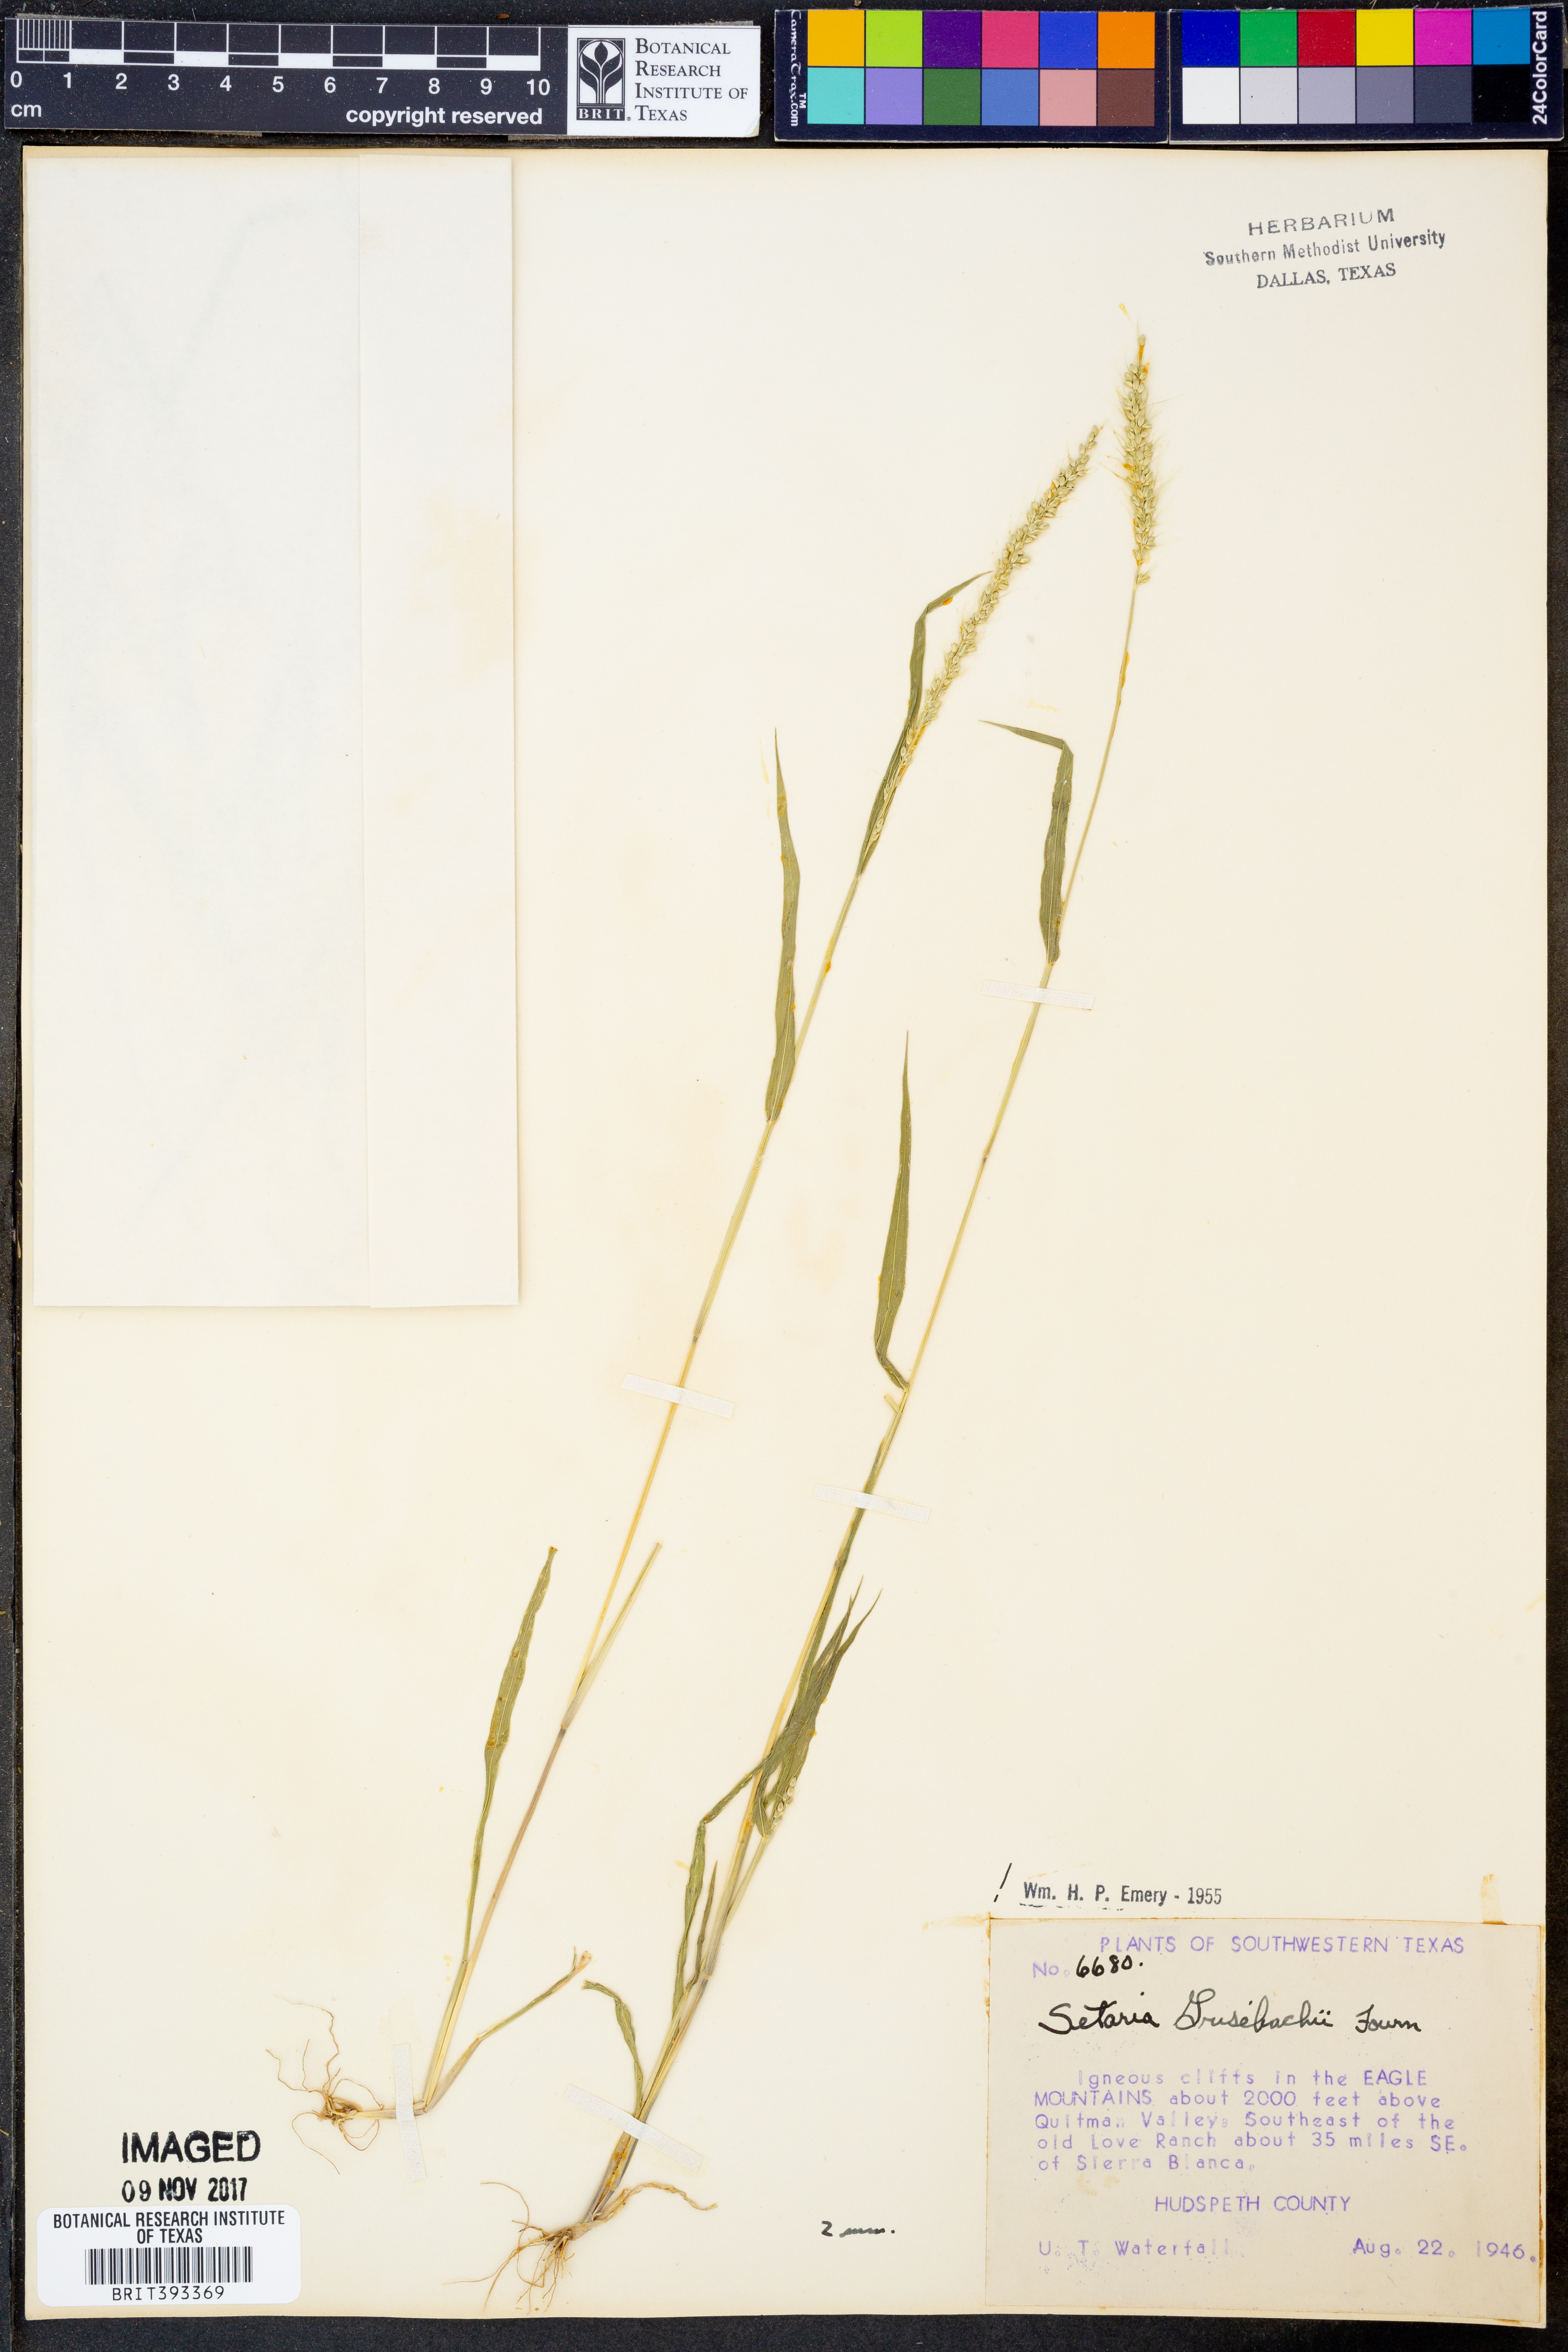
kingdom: Plantae
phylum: Tracheophyta
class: Liliopsida
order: Poales
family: Poaceae
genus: Setaria
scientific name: Setaria grisebachii
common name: Grisebach's bristle grass
